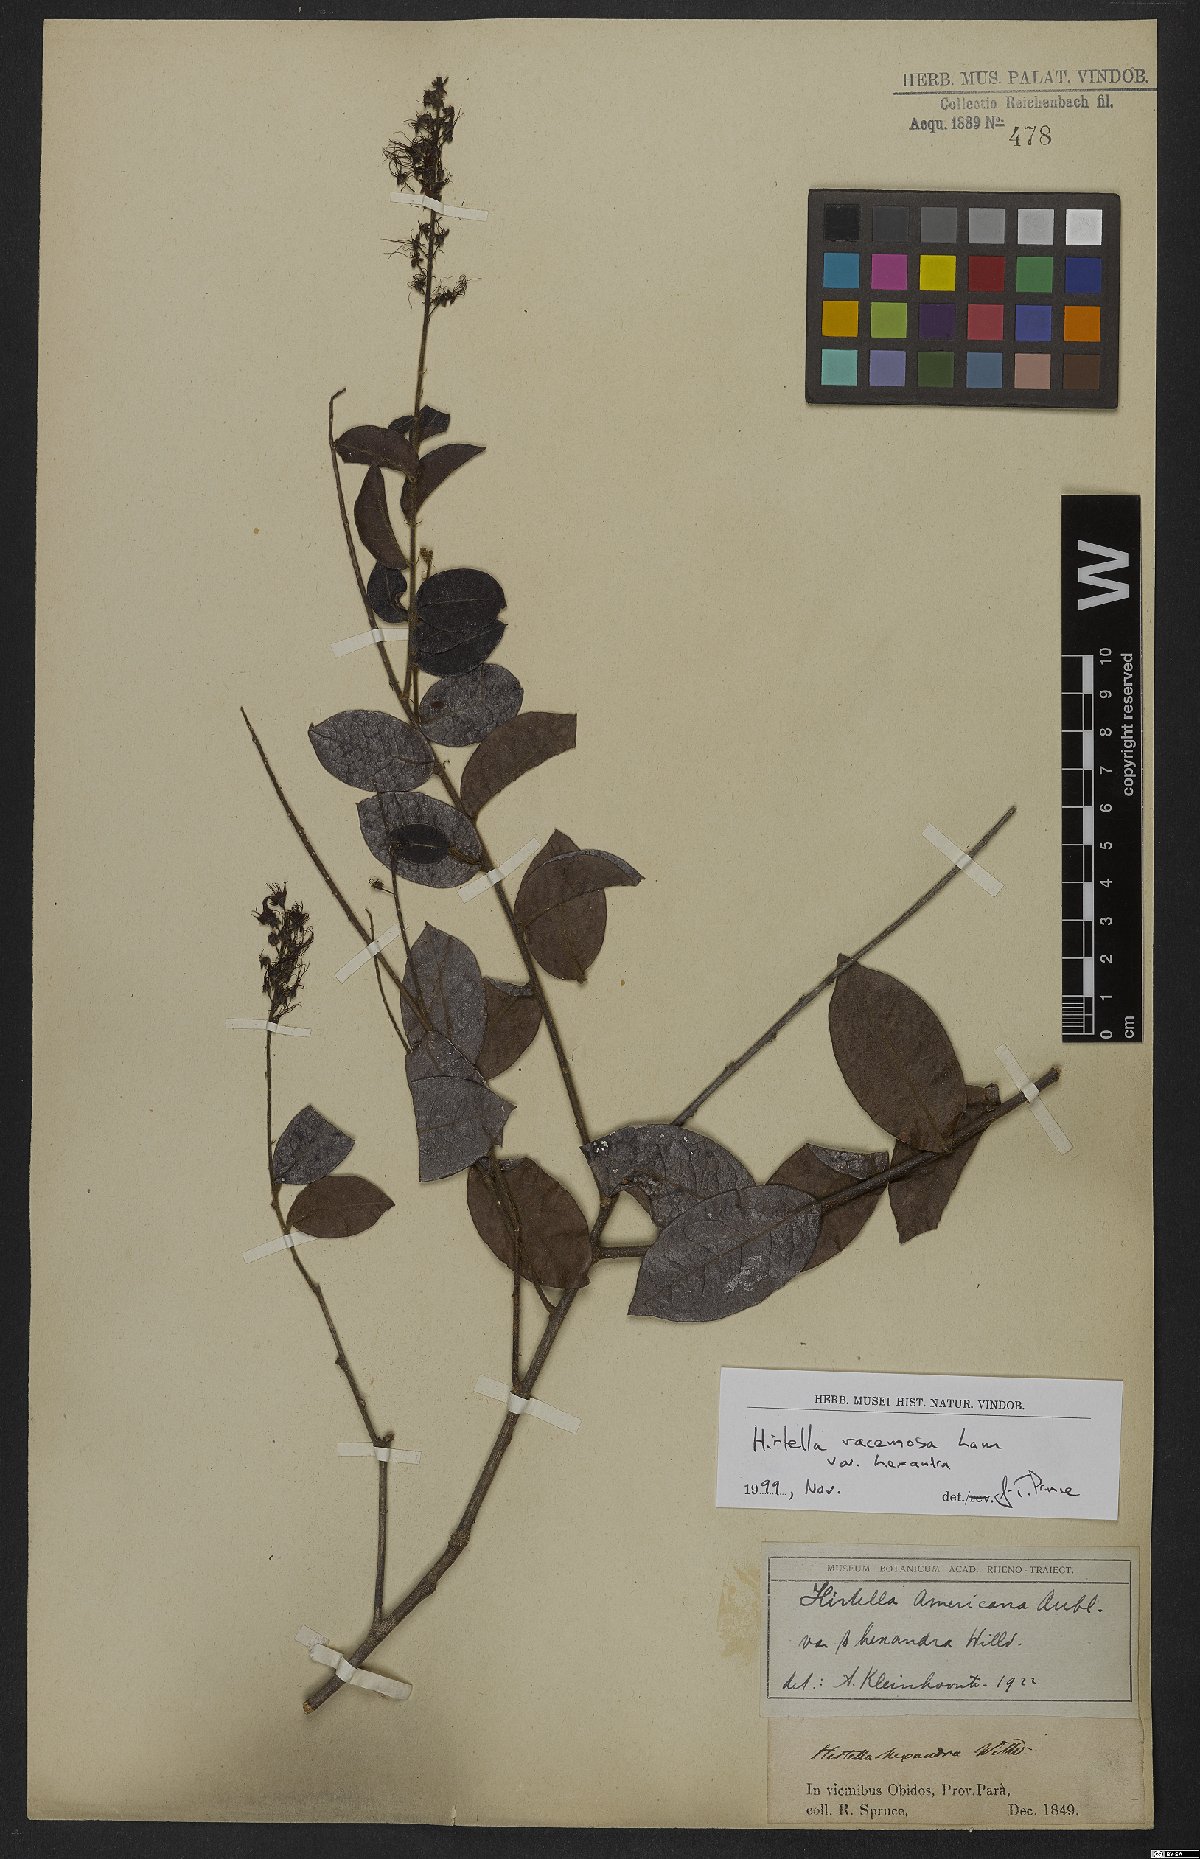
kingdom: Plantae
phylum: Tracheophyta
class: Magnoliopsida
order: Malpighiales
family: Chrysobalanaceae
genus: Hirtella
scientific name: Hirtella racemosa
